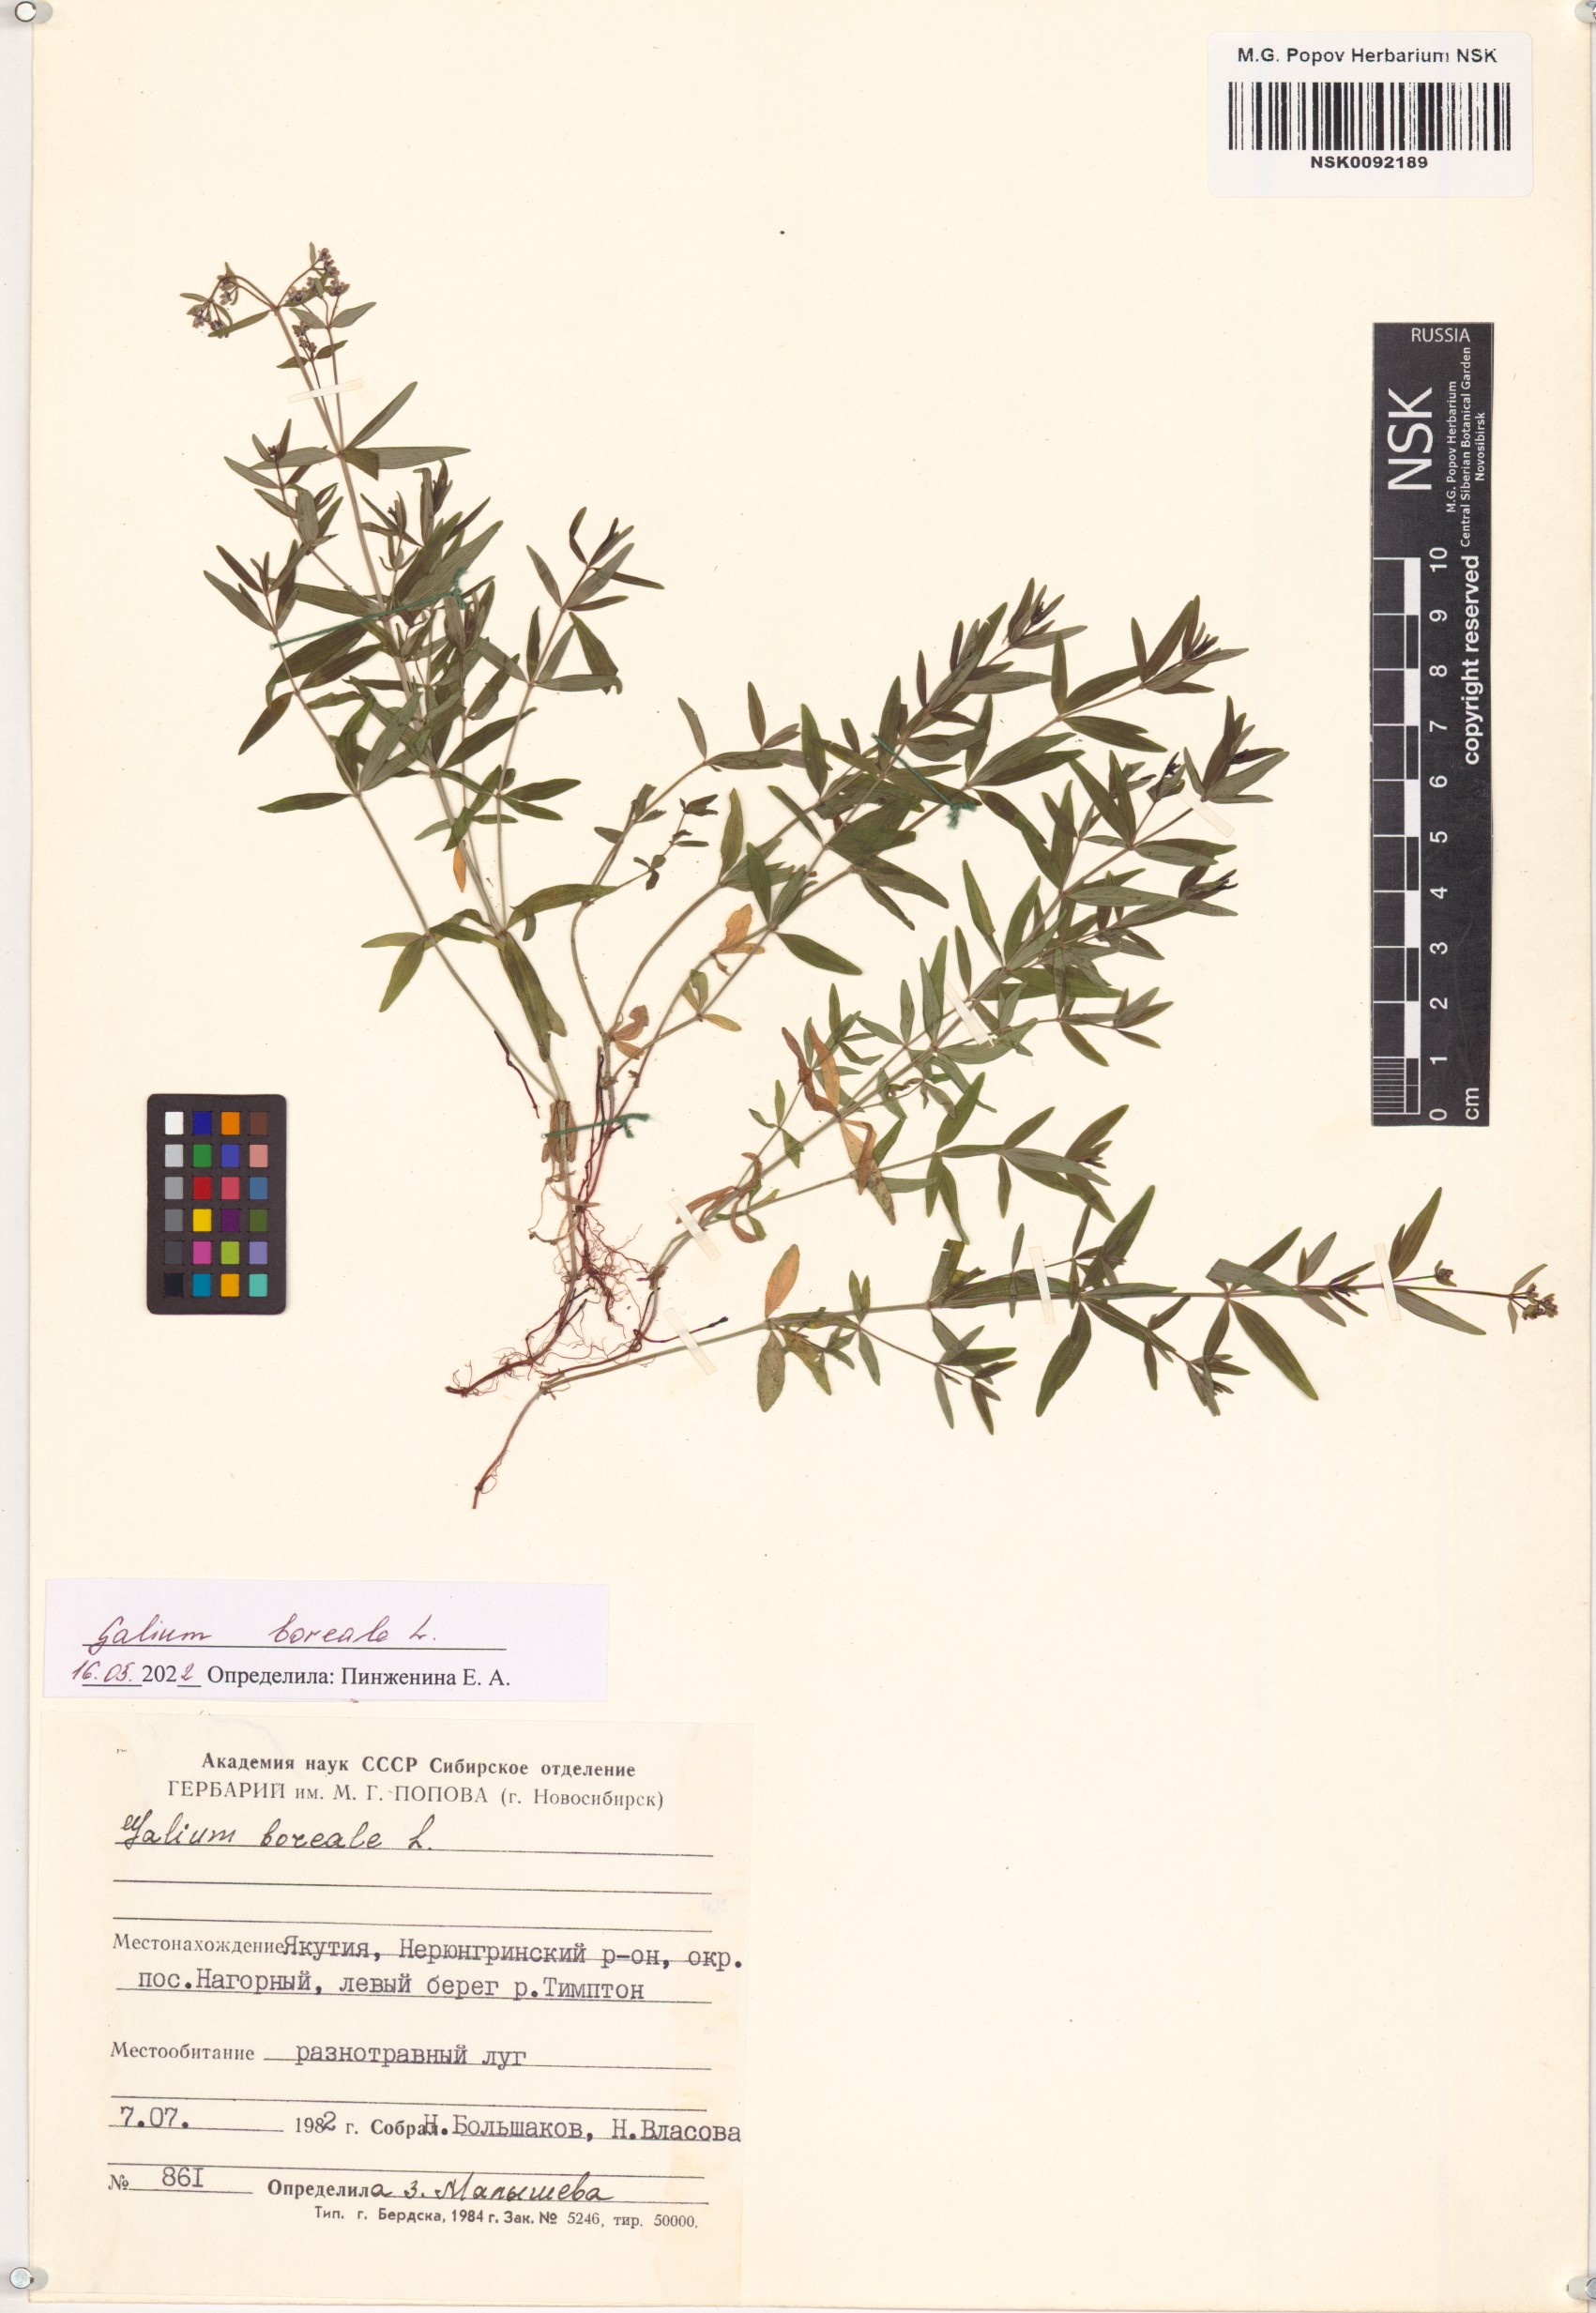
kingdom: Plantae
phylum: Tracheophyta
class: Magnoliopsida
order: Gentianales
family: Rubiaceae
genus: Galium
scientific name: Galium boreale
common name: Northern bedstraw
